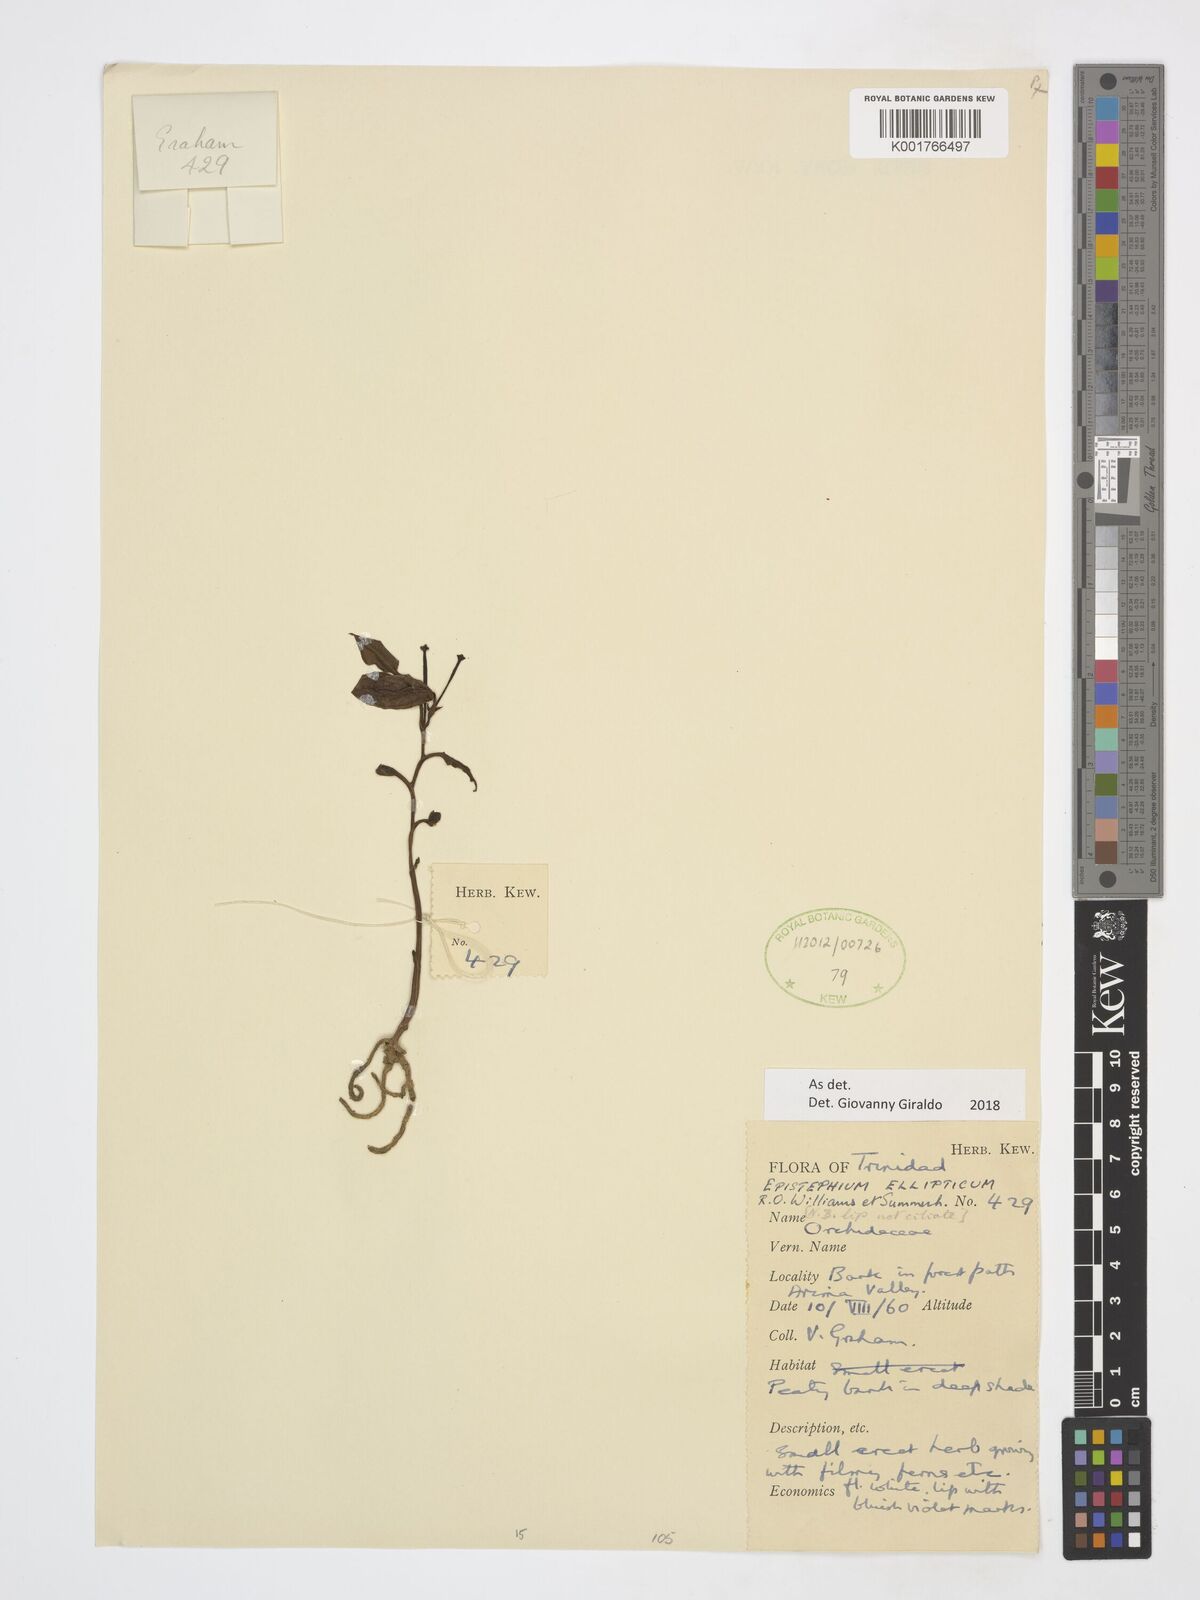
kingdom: Plantae
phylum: Tracheophyta
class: Liliopsida
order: Asparagales
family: Orchidaceae
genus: Epistephium
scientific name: Epistephium ellipticum
